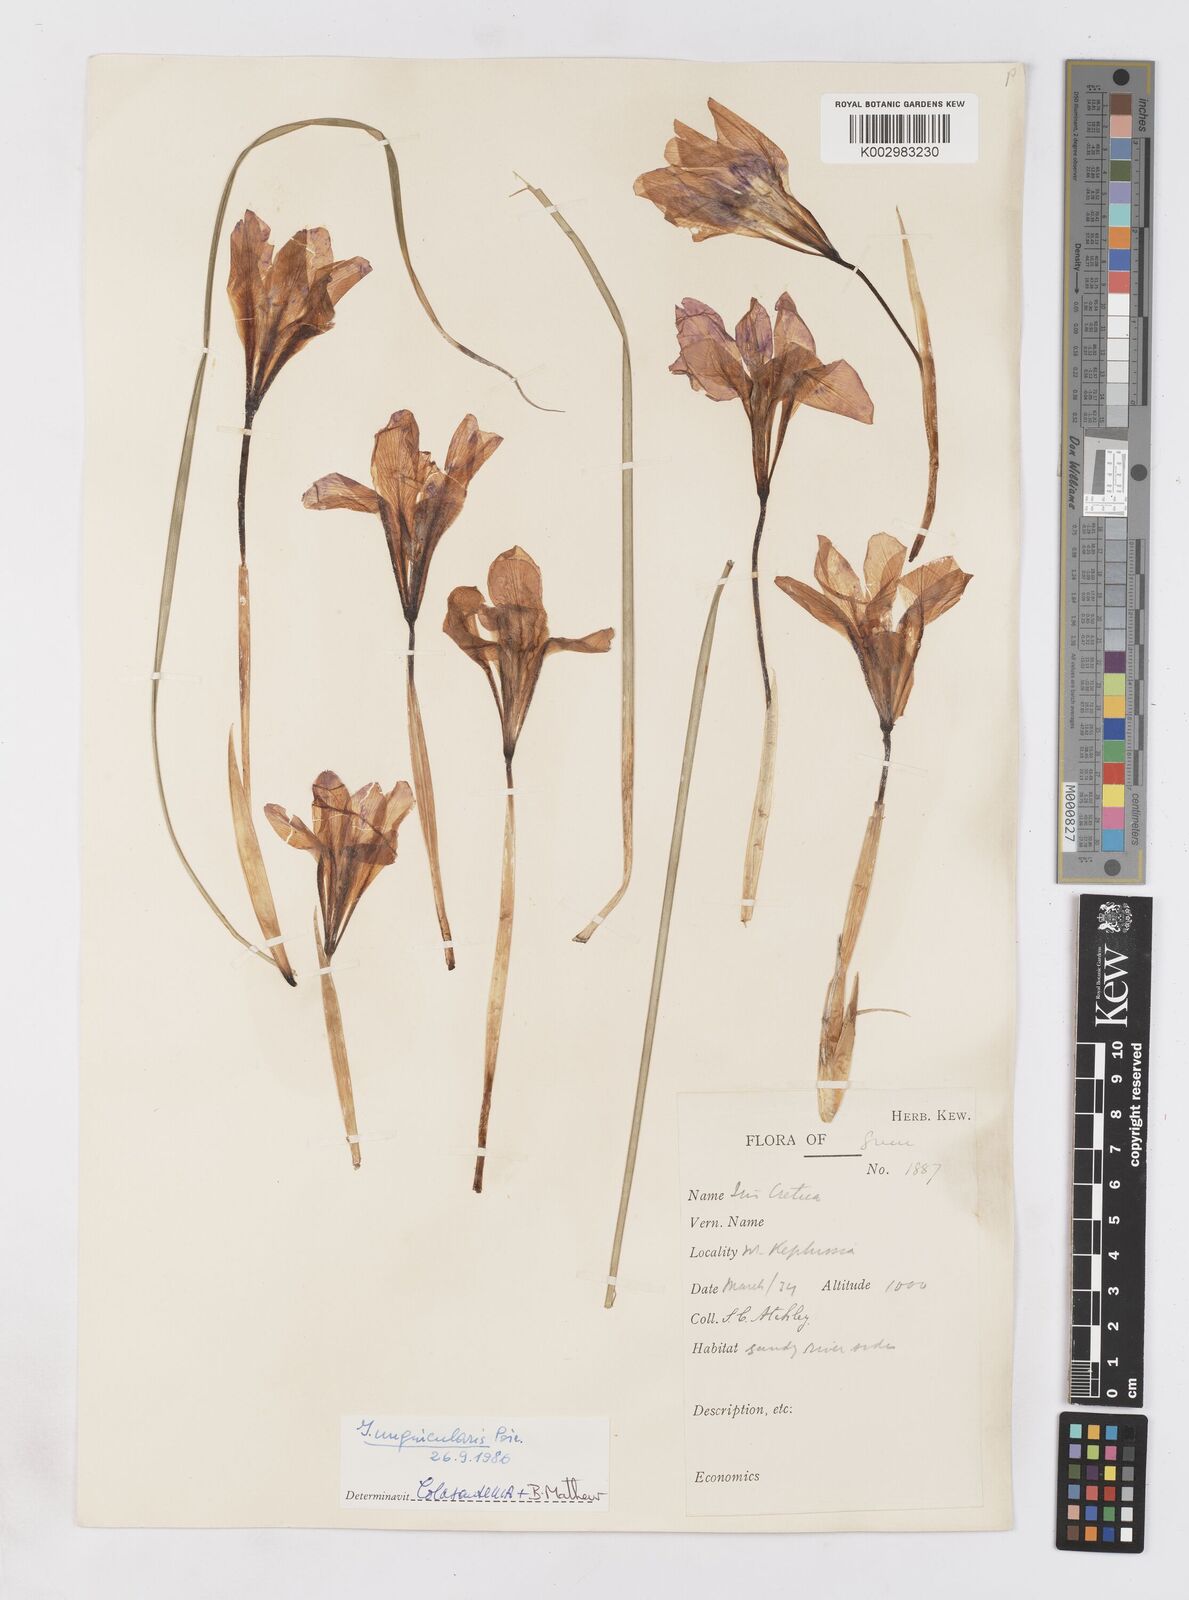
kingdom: Plantae
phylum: Tracheophyta
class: Liliopsida
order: Asparagales
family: Iridaceae
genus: Iris
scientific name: Iris unguicularis
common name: Algerian iris
